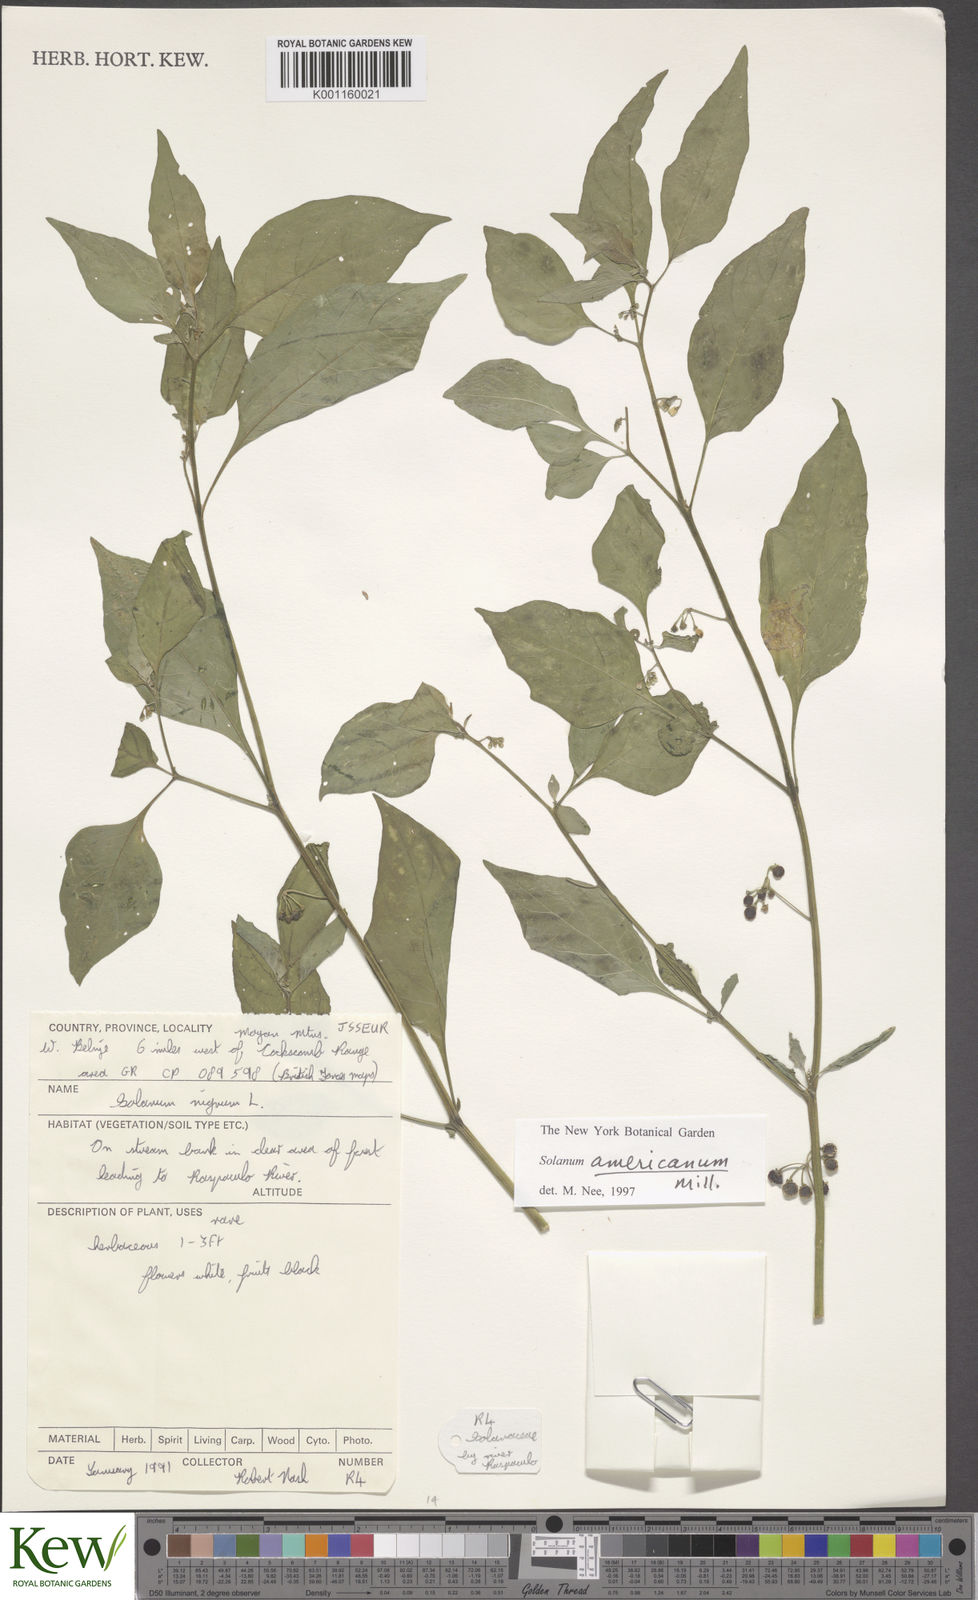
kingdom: Plantae
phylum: Tracheophyta
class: Magnoliopsida
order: Solanales
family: Solanaceae
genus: Solanum
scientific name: Solanum americanum
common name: American black nightshade
